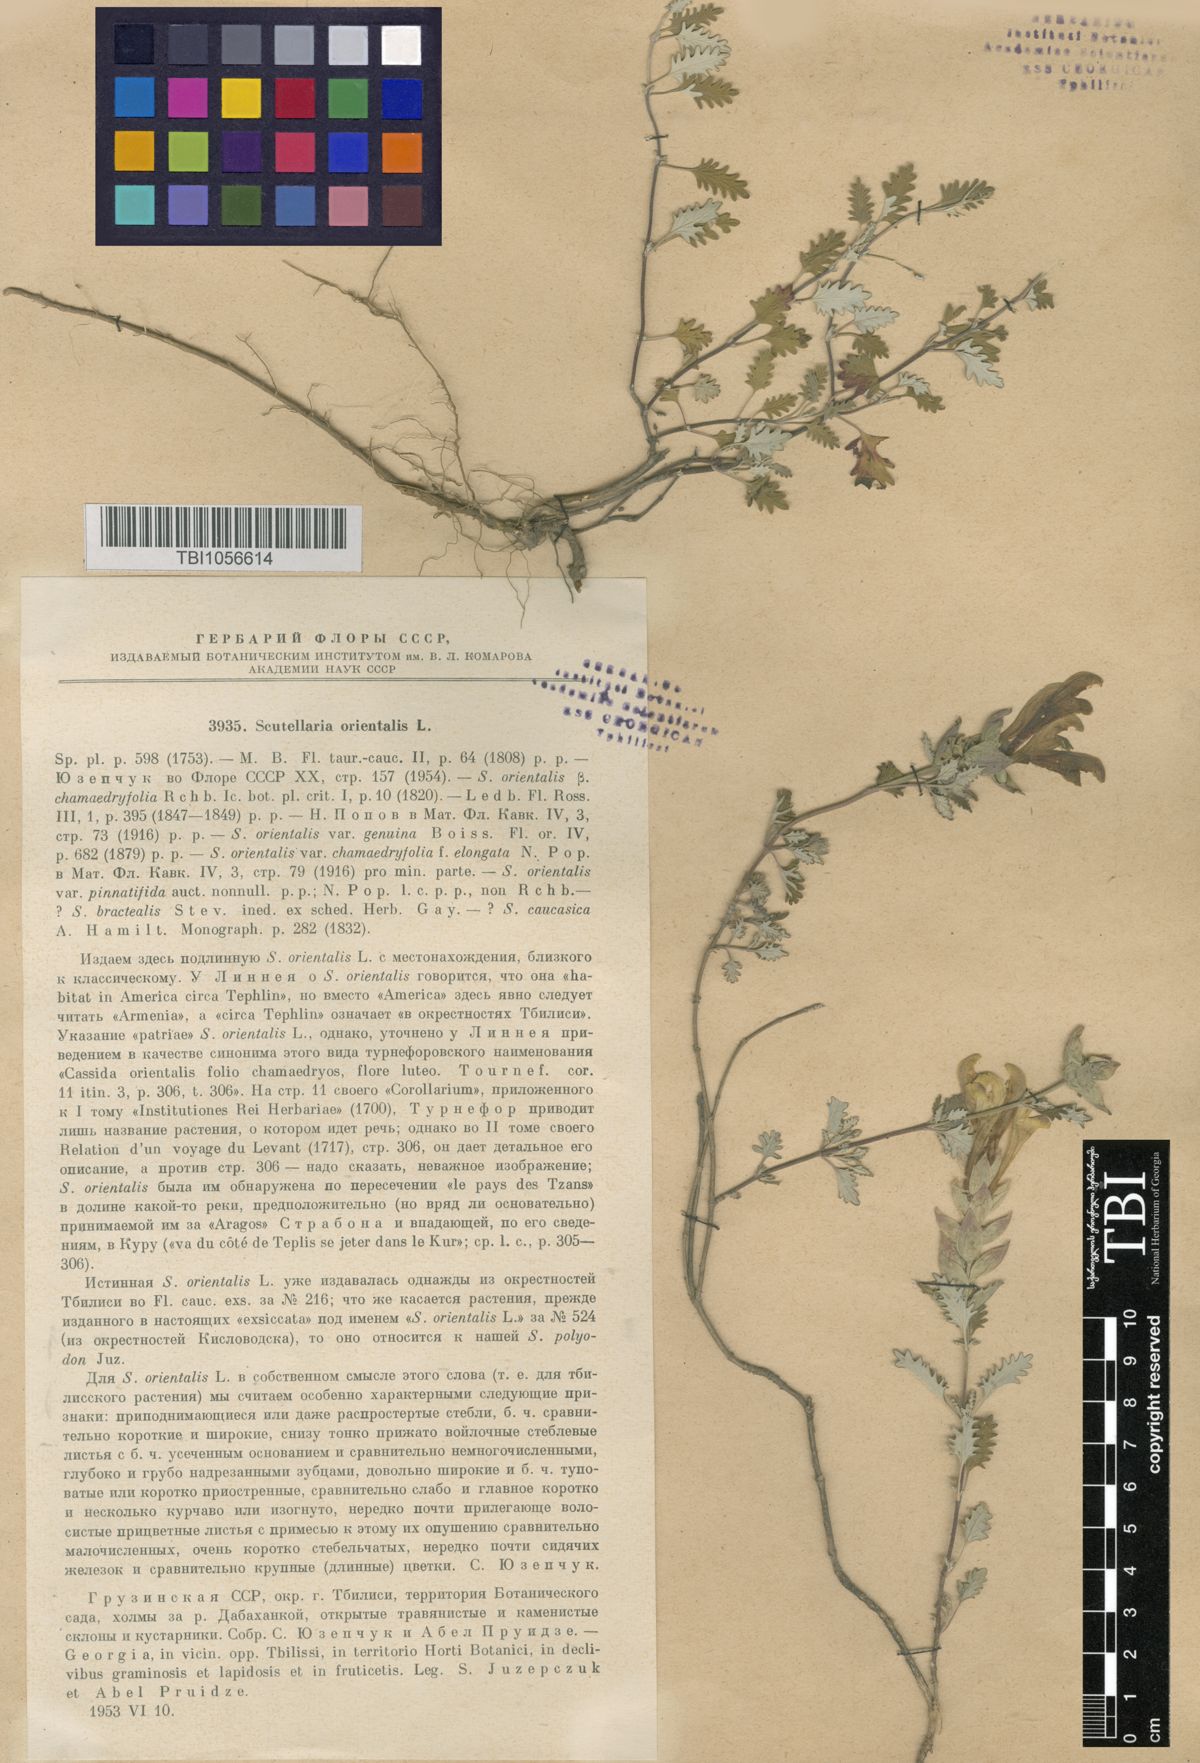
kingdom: Plantae
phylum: Tracheophyta
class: Magnoliopsida
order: Lamiales
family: Lamiaceae
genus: Scutellaria
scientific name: Scutellaria orientalis
